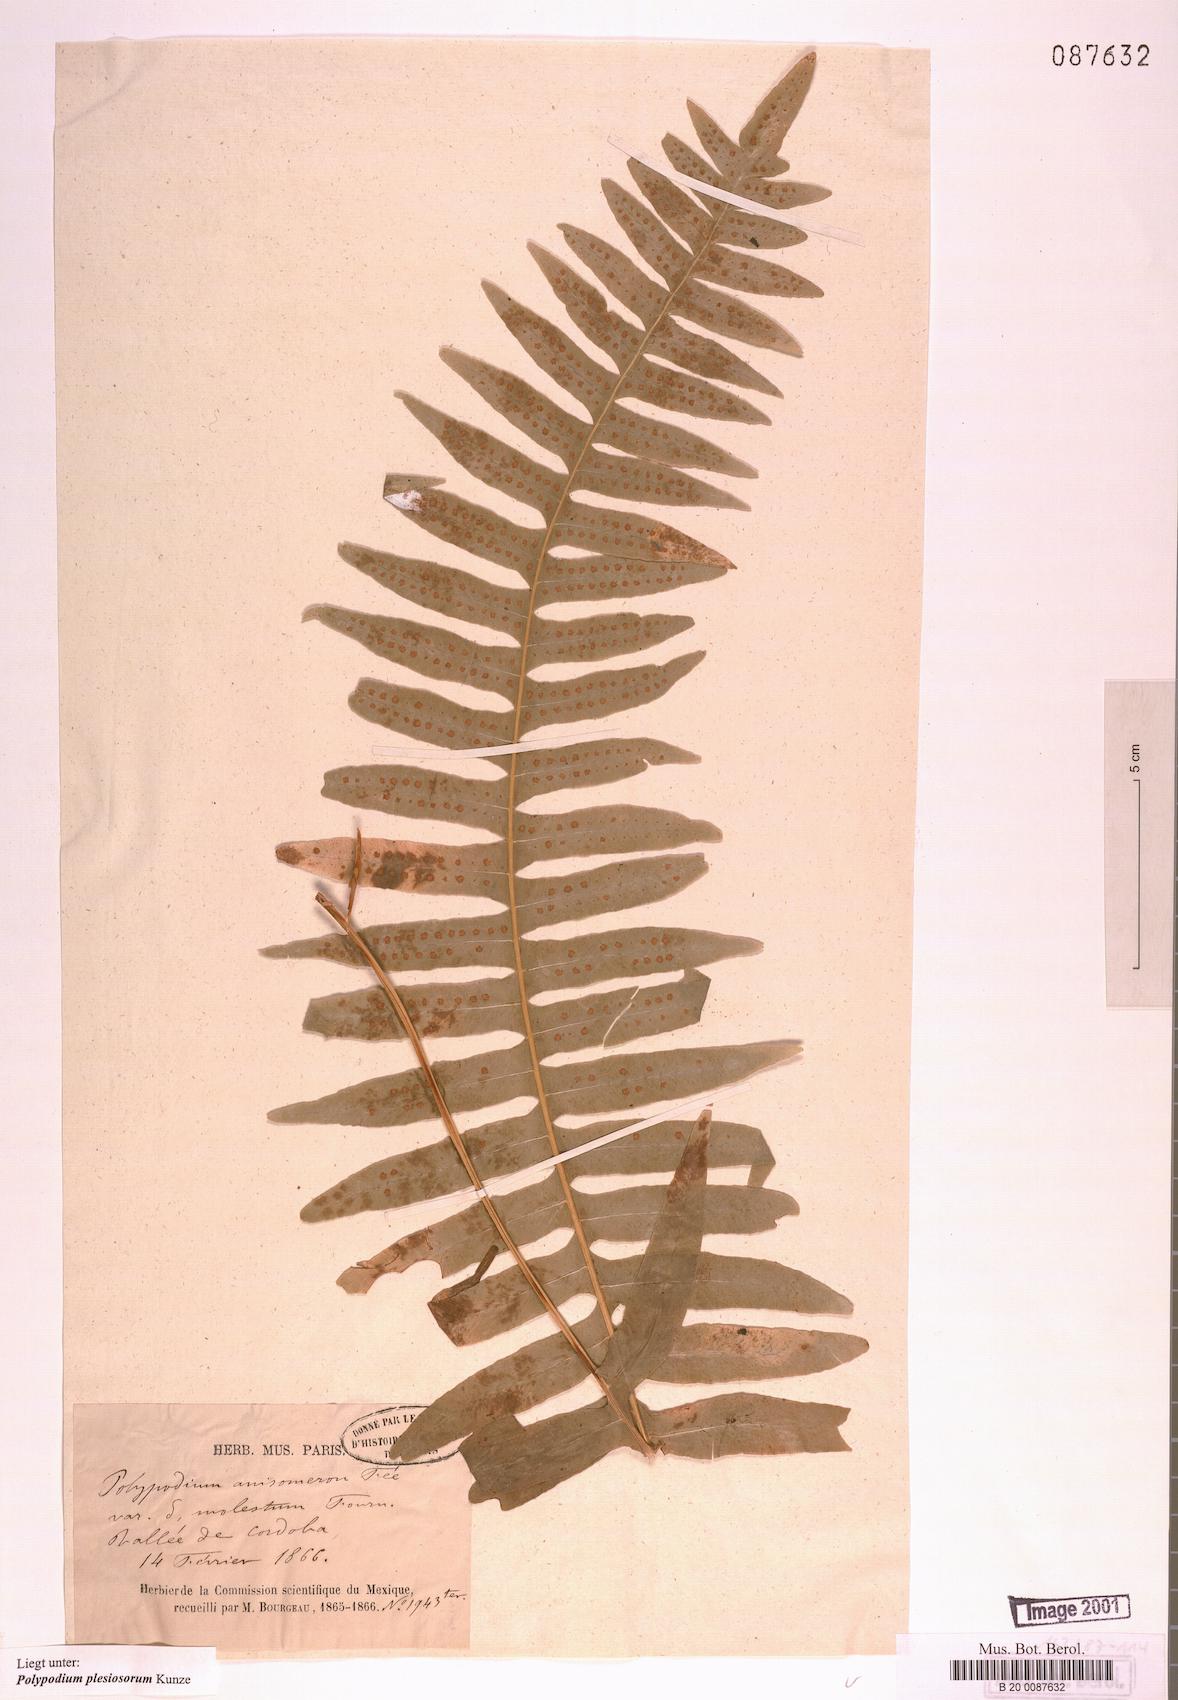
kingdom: Plantae
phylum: Tracheophyta
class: Polypodiopsida
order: Polypodiales
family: Polypodiaceae
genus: Polypodium
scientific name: Polypodium plesiosorum
